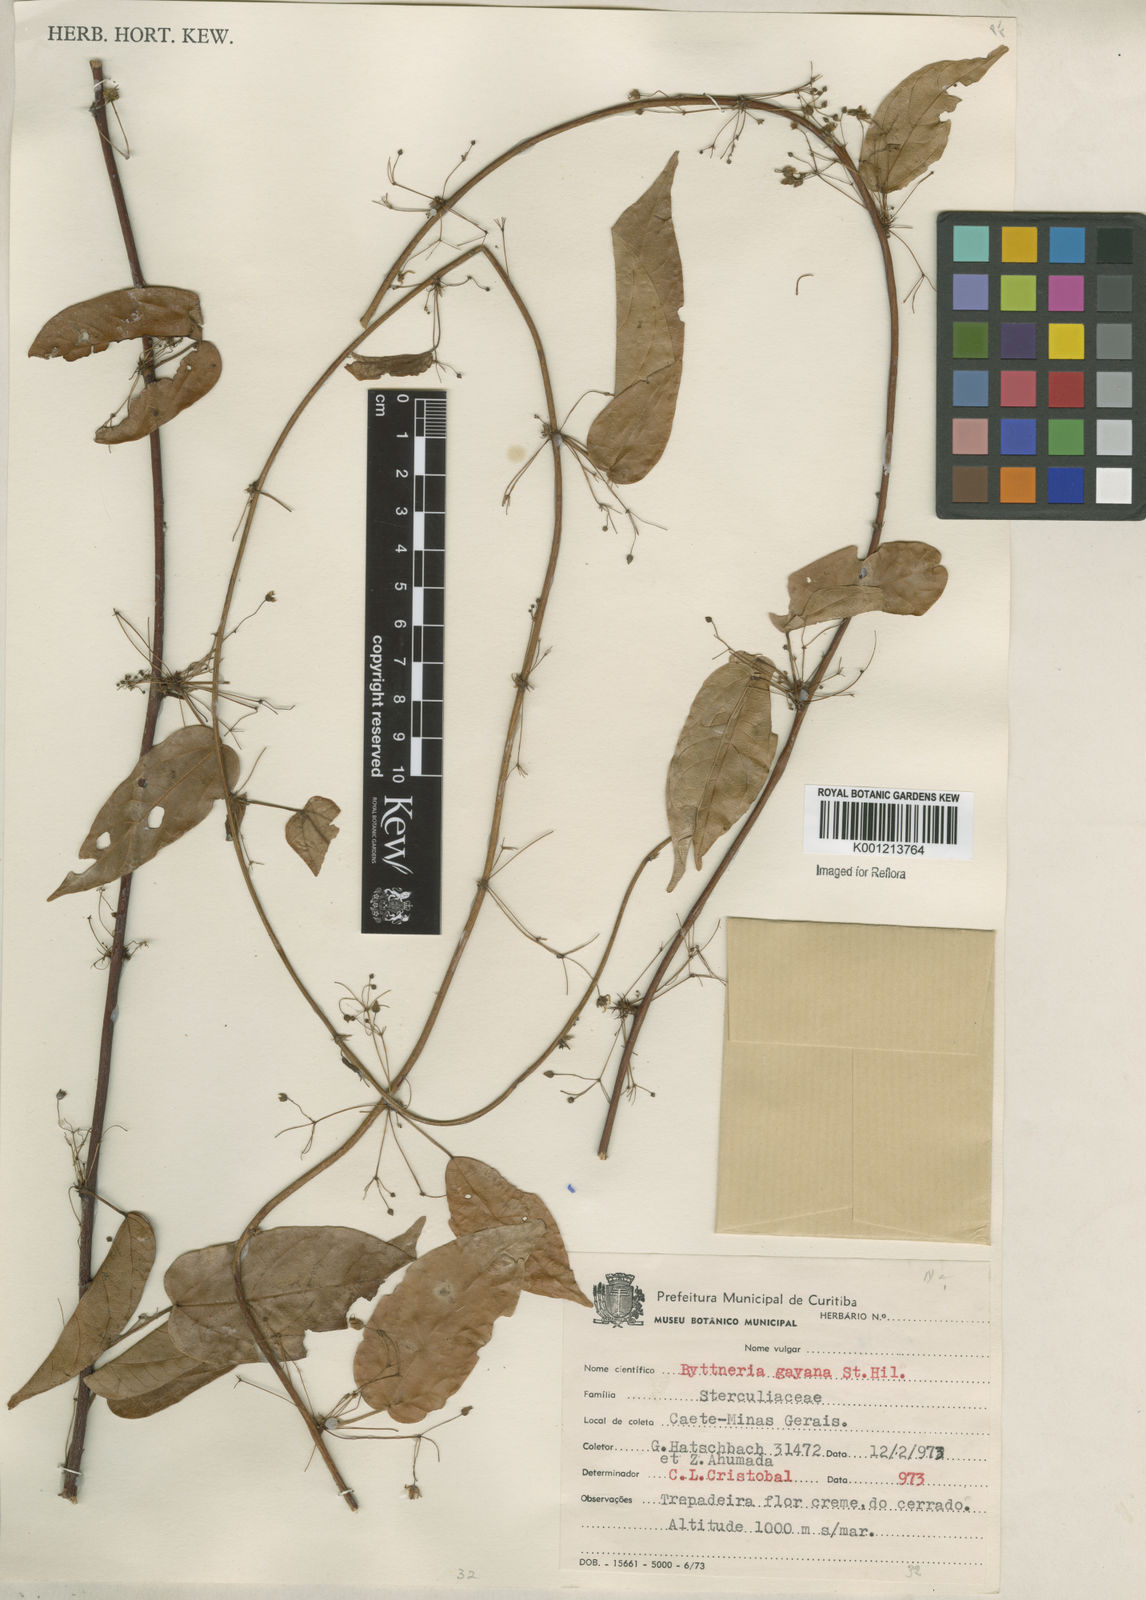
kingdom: Plantae
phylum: Tracheophyta
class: Magnoliopsida
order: Malvales
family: Malvaceae
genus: Byttneria
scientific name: Byttneria gayana
